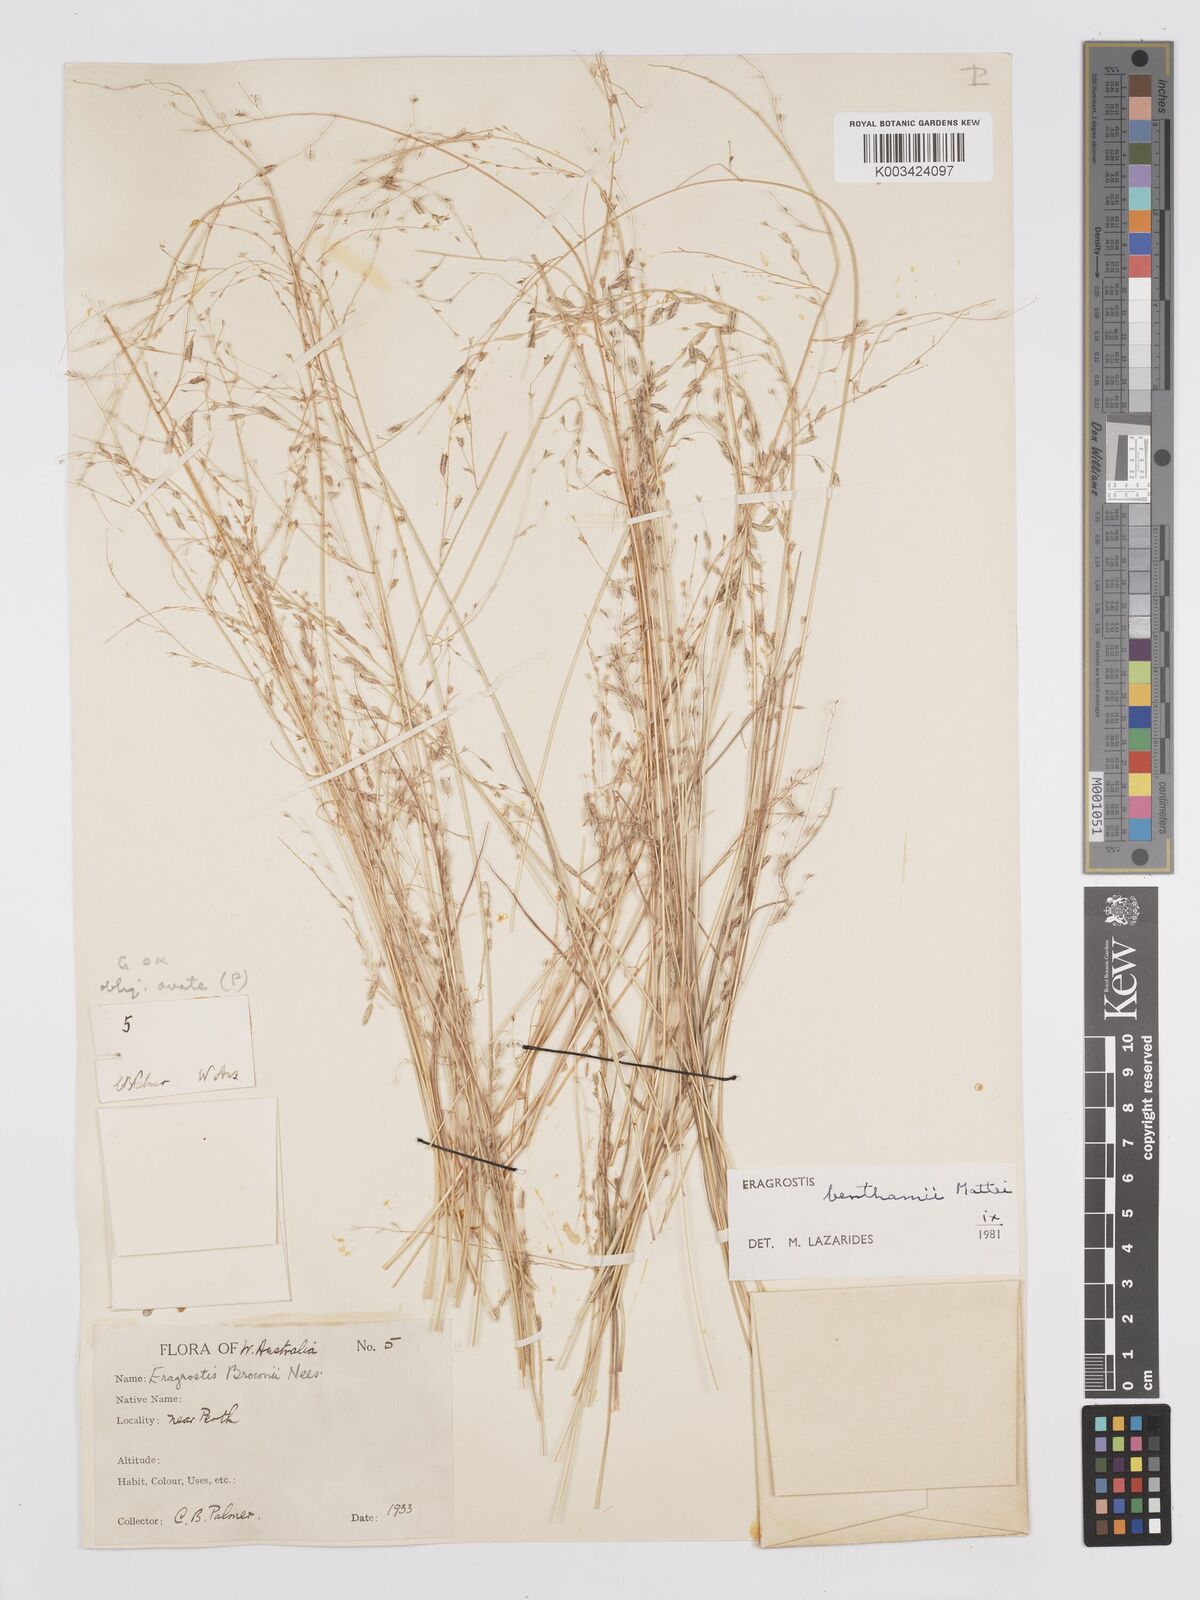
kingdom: Plantae
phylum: Tracheophyta
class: Liliopsida
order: Poales
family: Poaceae
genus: Eragrostis
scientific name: Eragrostis brownii
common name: Lovegrass
